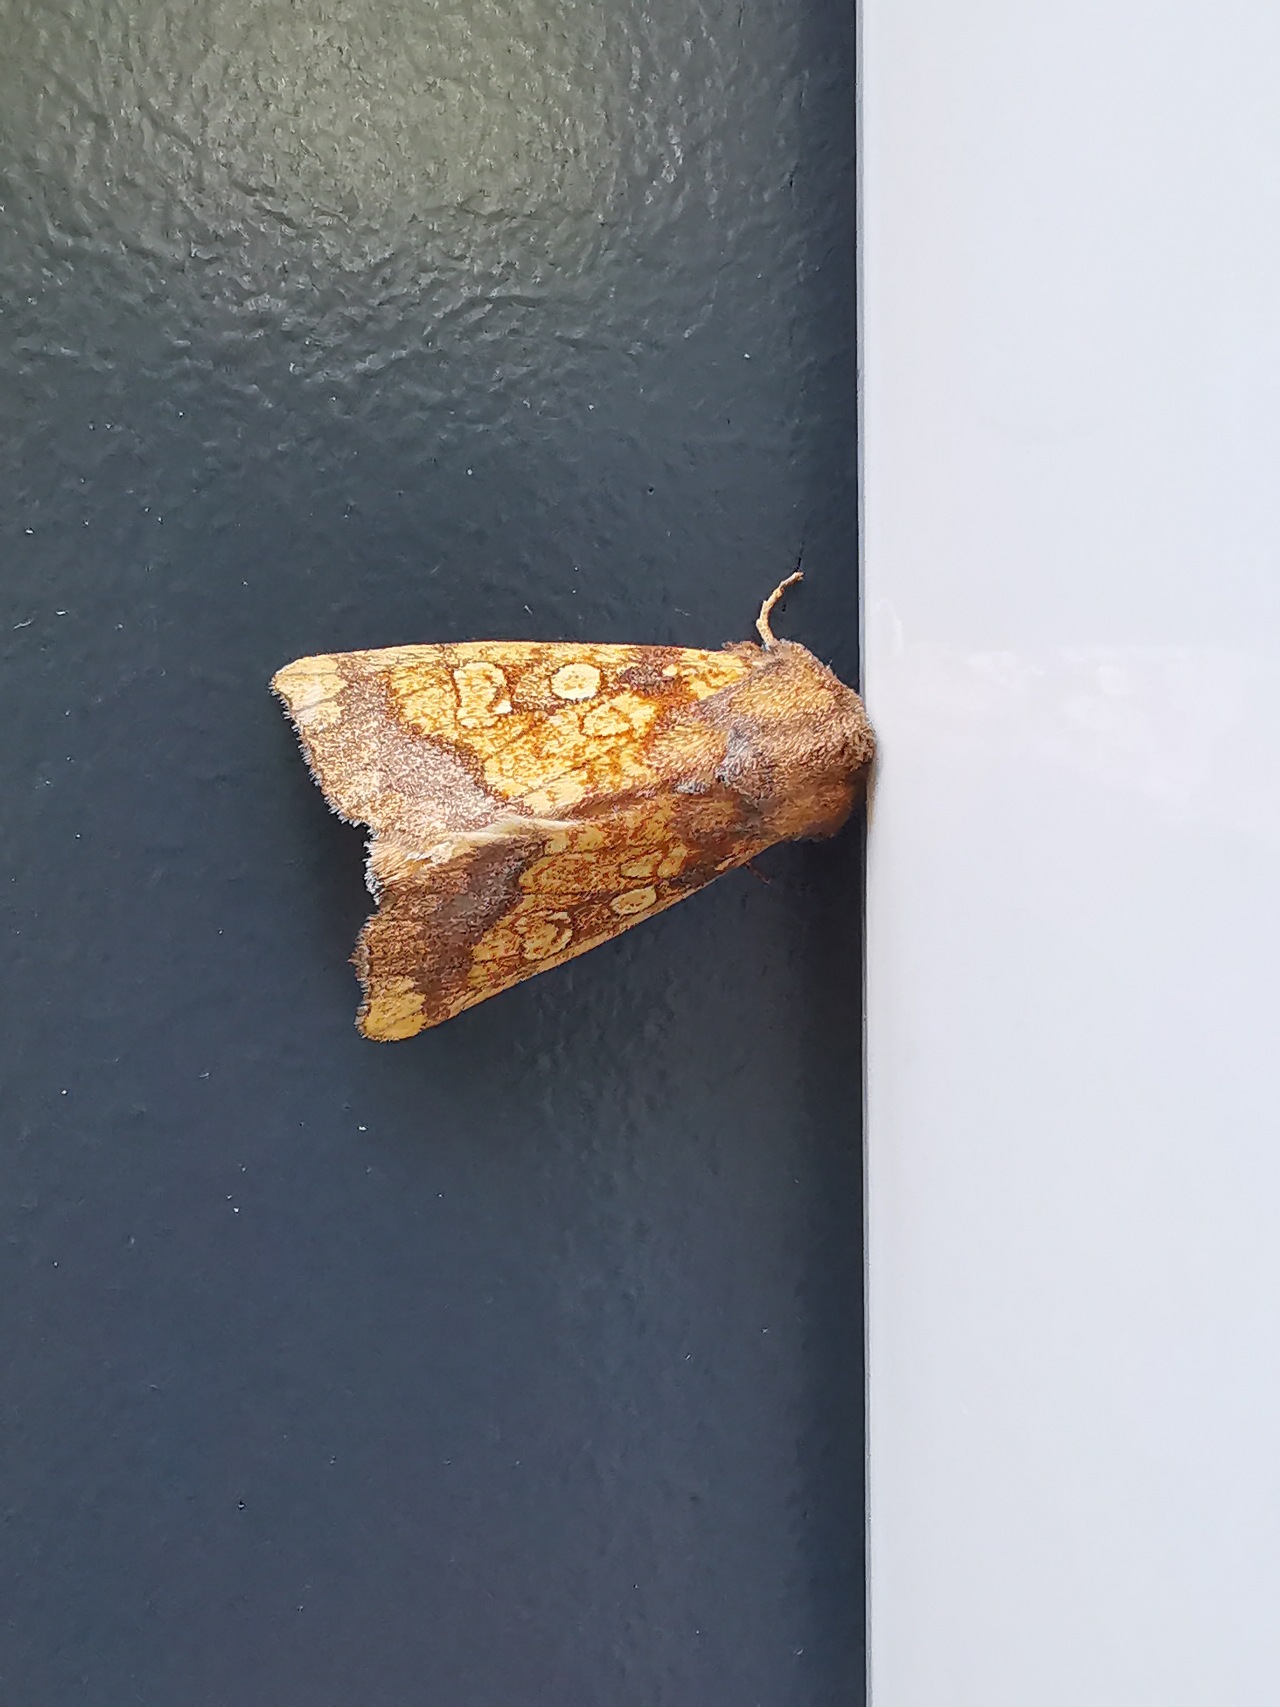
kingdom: Animalia
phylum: Arthropoda
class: Insecta
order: Lepidoptera
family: Noctuidae
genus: Gortyna
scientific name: Gortyna flavago
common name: Burreugle
